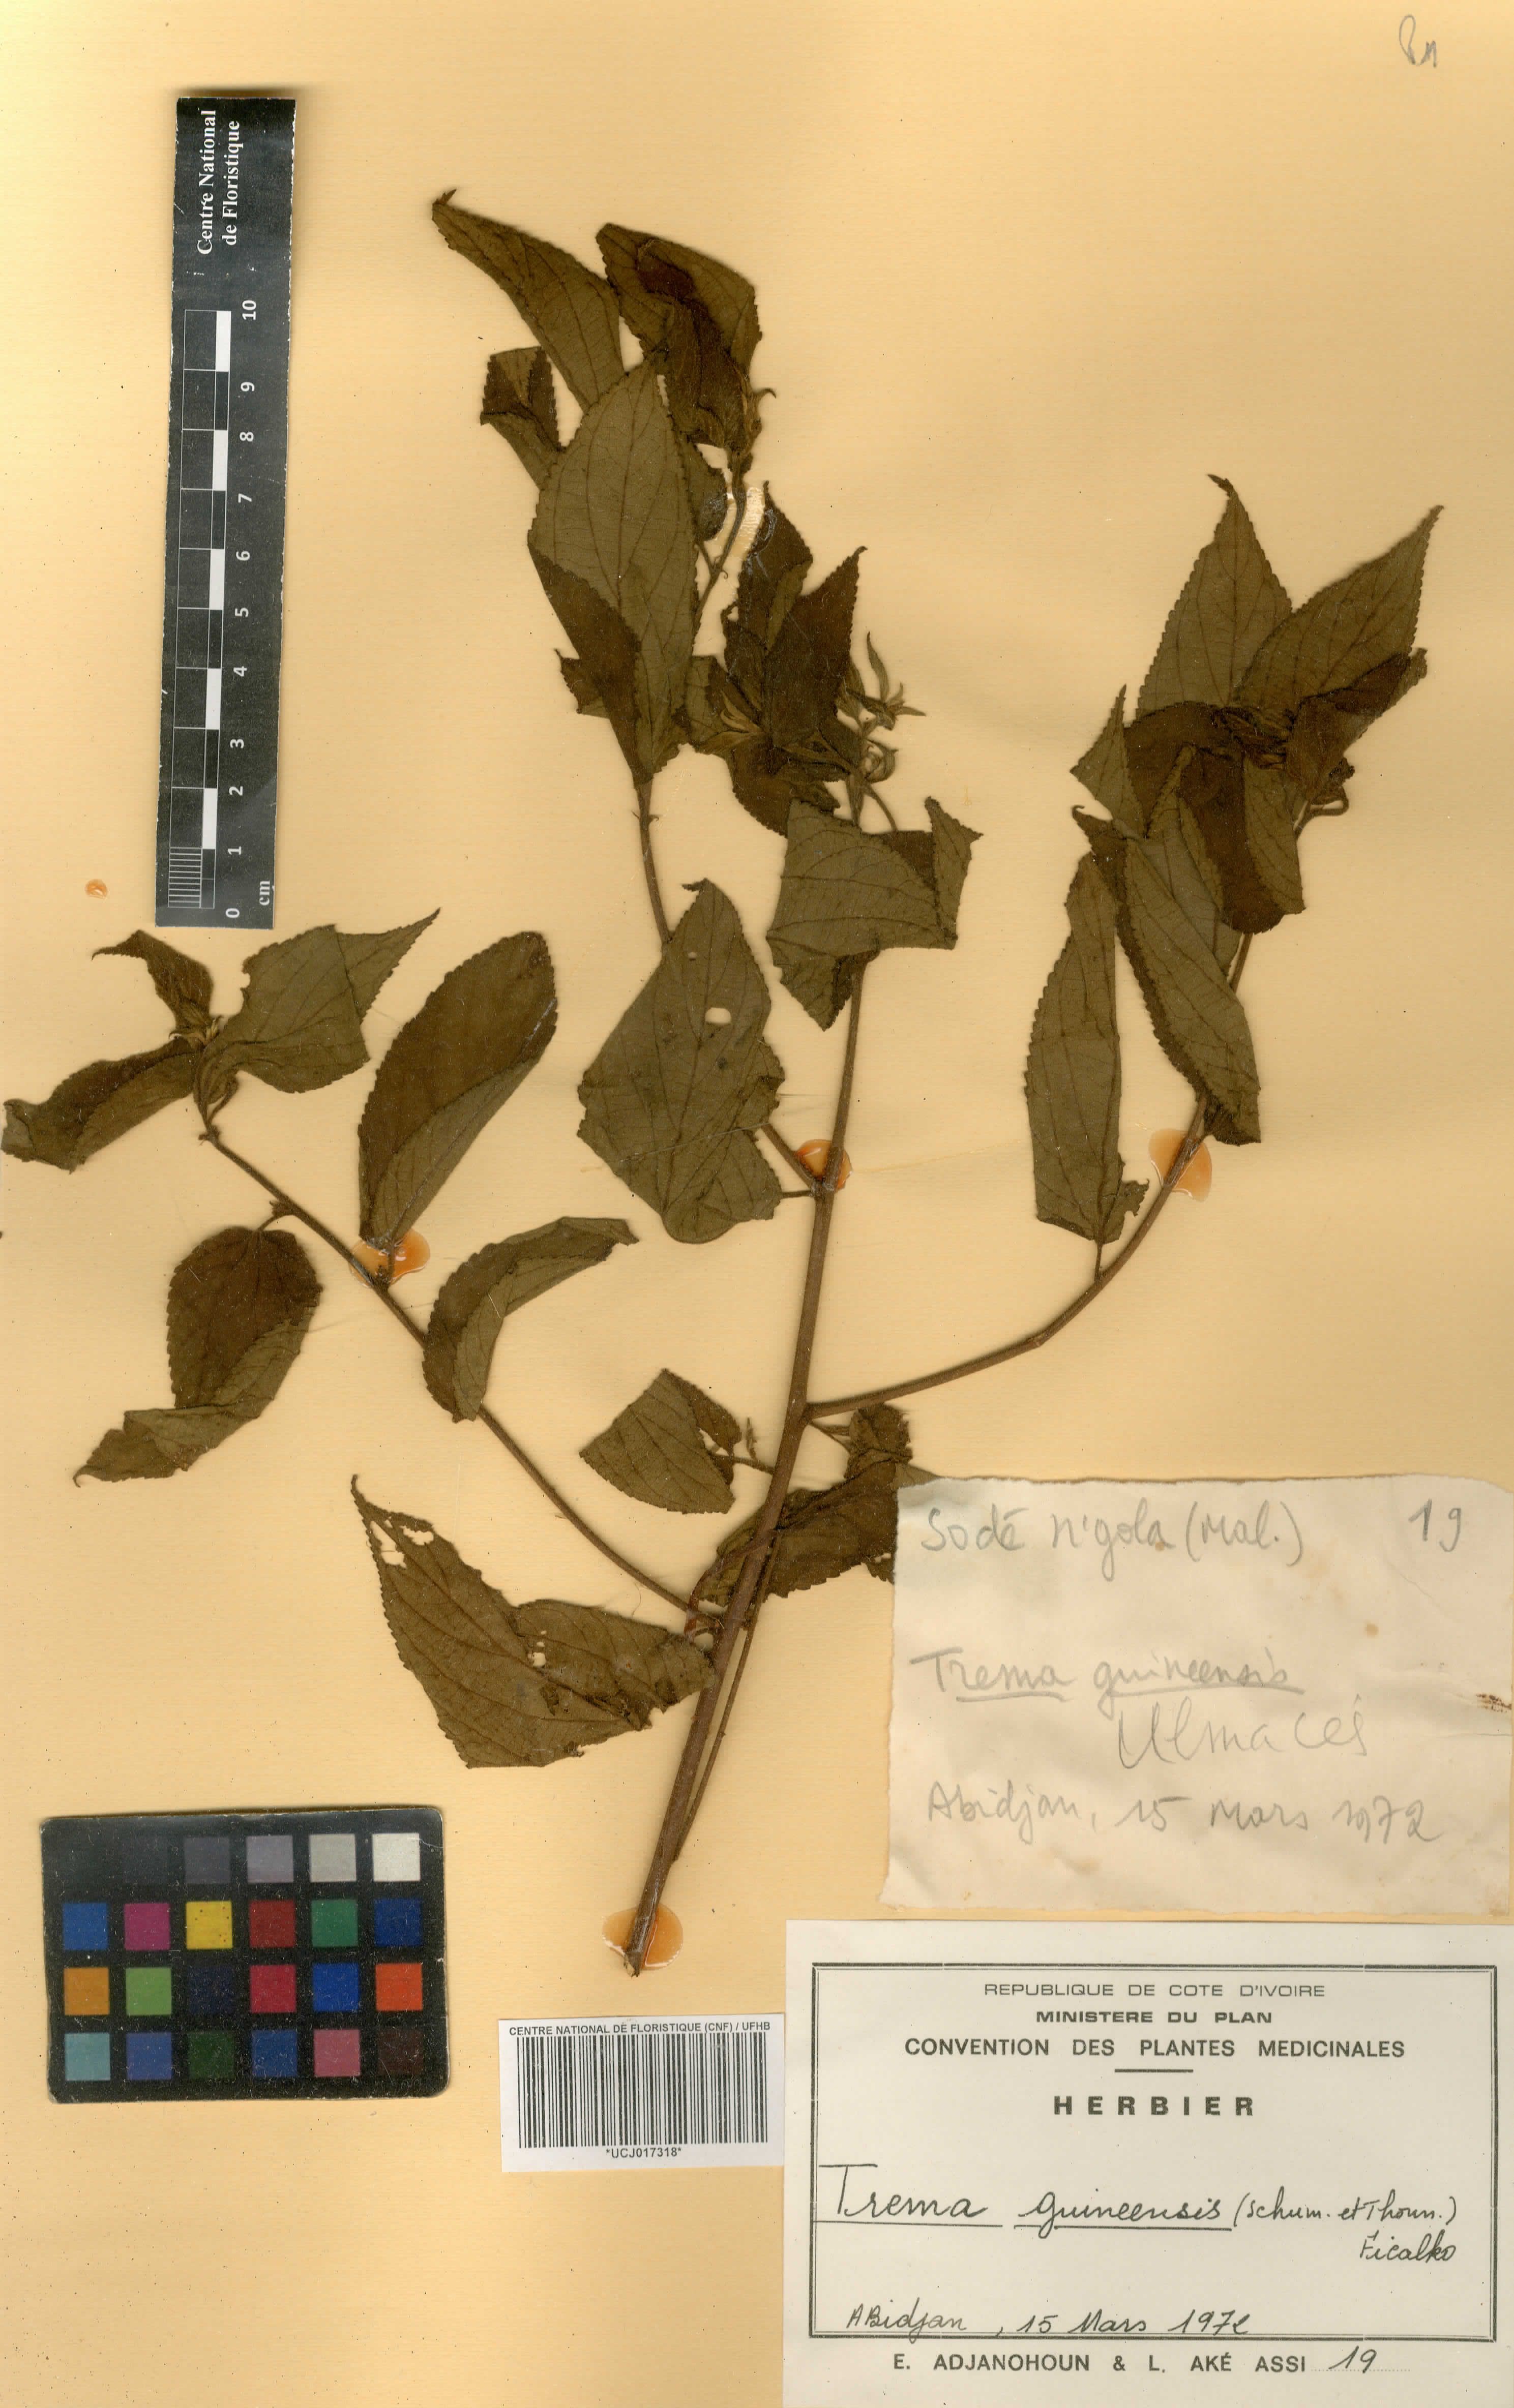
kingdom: Plantae
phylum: Tracheophyta
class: Magnoliopsida
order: Rosales
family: Cannabaceae
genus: Trema
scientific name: Trema orientale
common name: Indian charcoal tree
